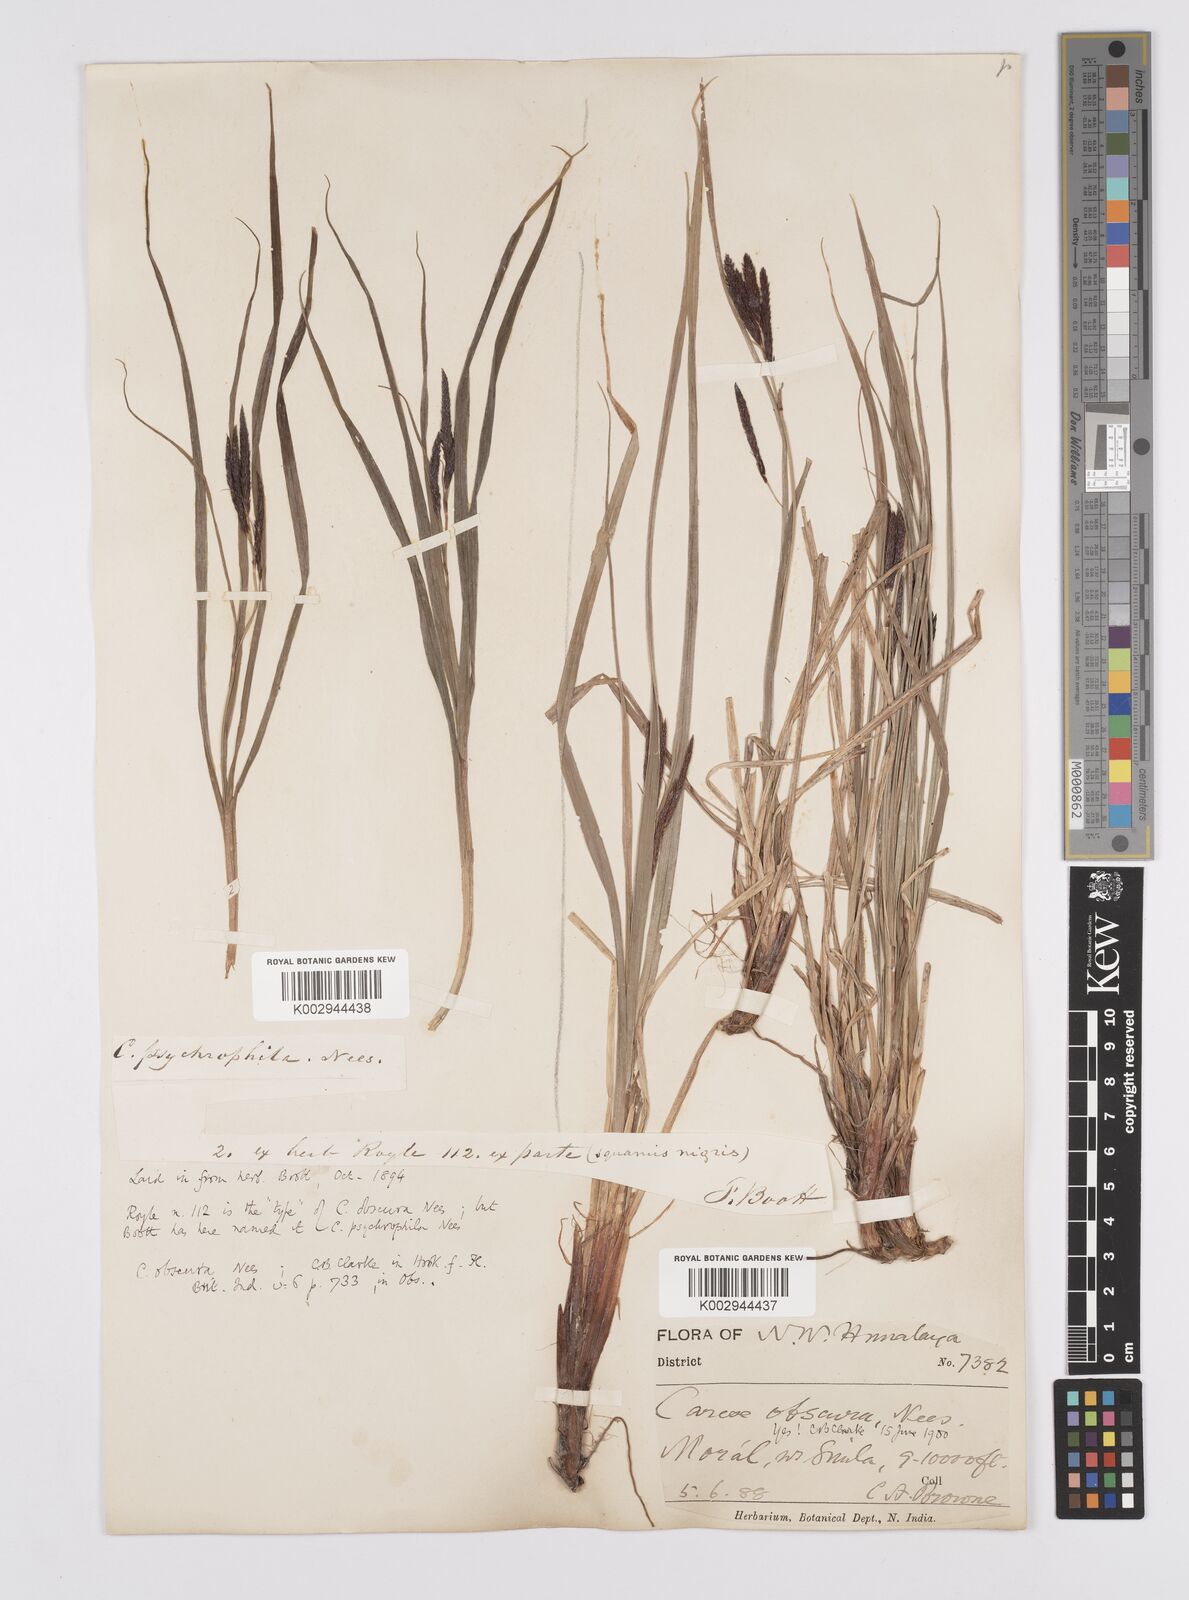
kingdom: Plantae
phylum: Tracheophyta
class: Liliopsida
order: Poales
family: Cyperaceae
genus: Carex
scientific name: Carex obscura
